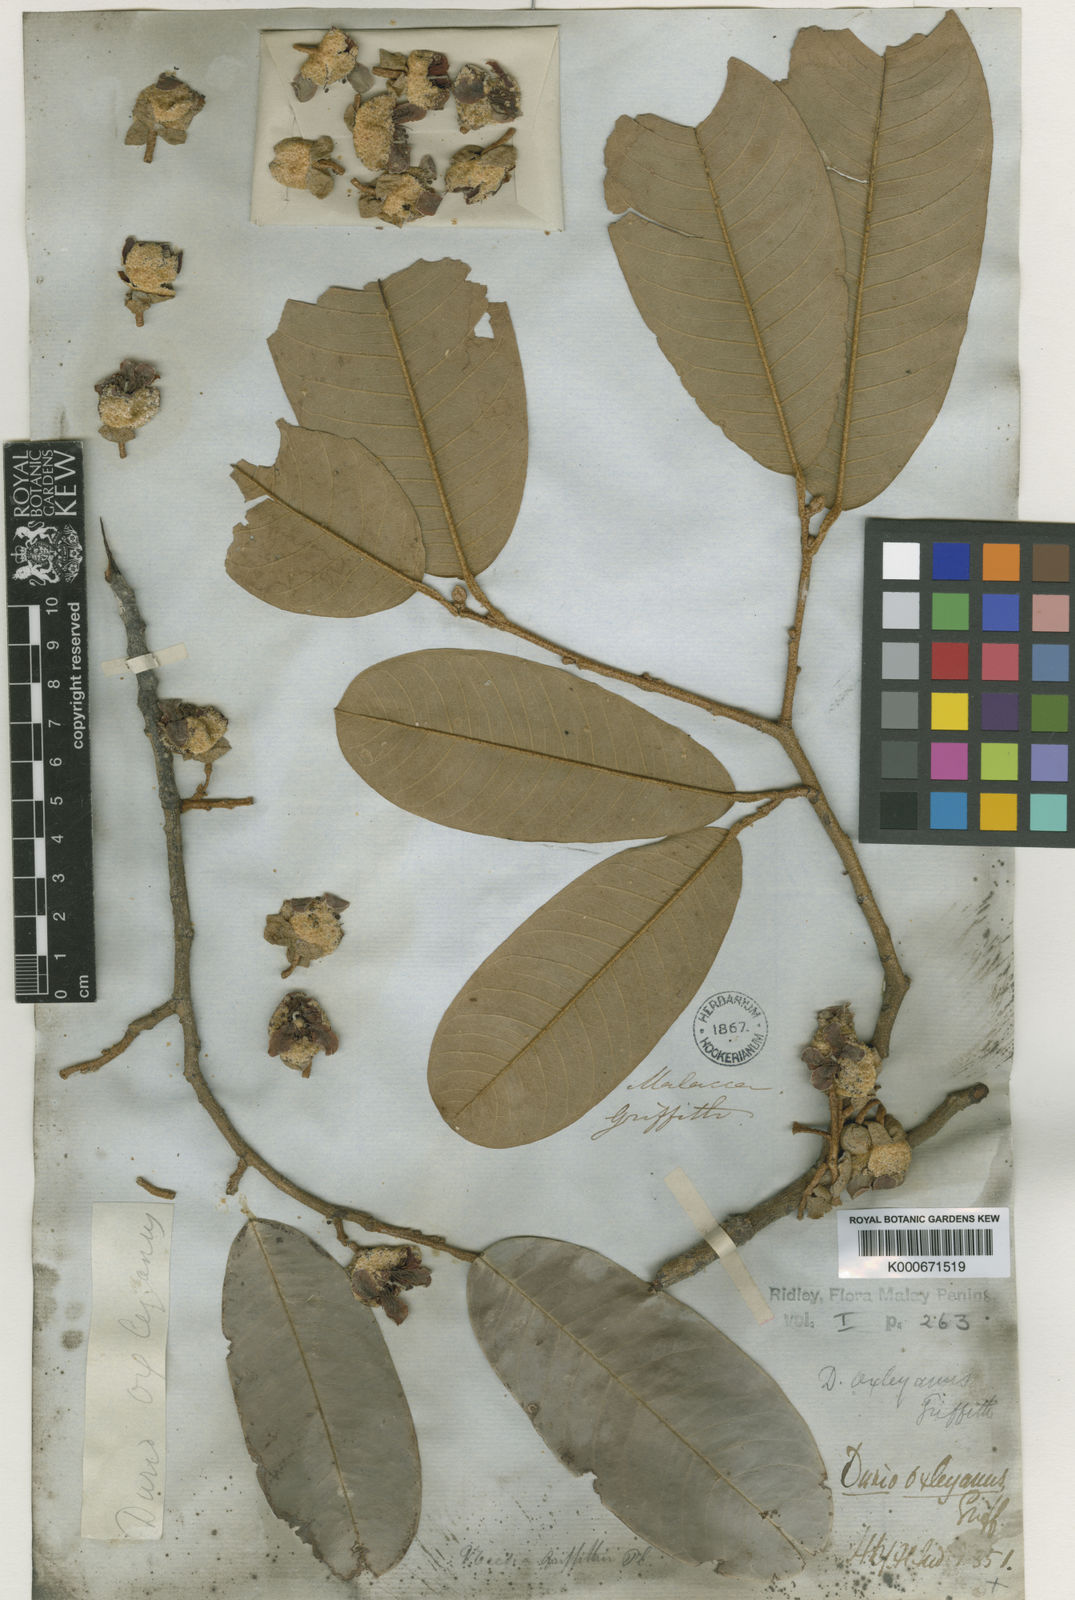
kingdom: Plantae
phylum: Tracheophyta
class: Magnoliopsida
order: Malvales
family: Malvaceae
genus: Durio
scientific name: Durio oxleyanus
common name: Durian
